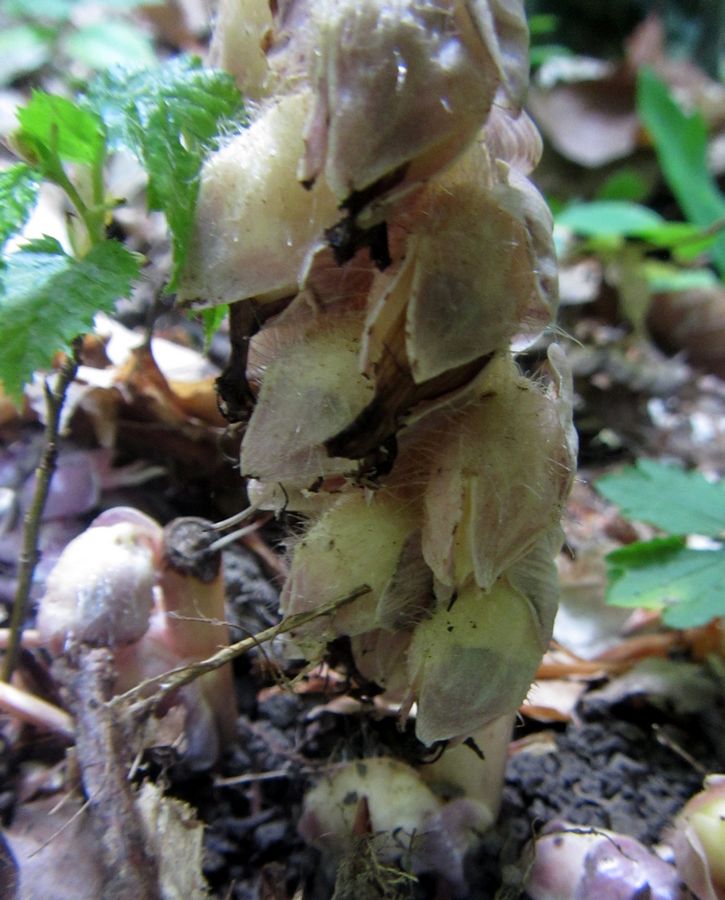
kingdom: Plantae
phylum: Tracheophyta
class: Magnoliopsida
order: Lamiales
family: Orobanchaceae
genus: Lathraea
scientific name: Lathraea squamaria
